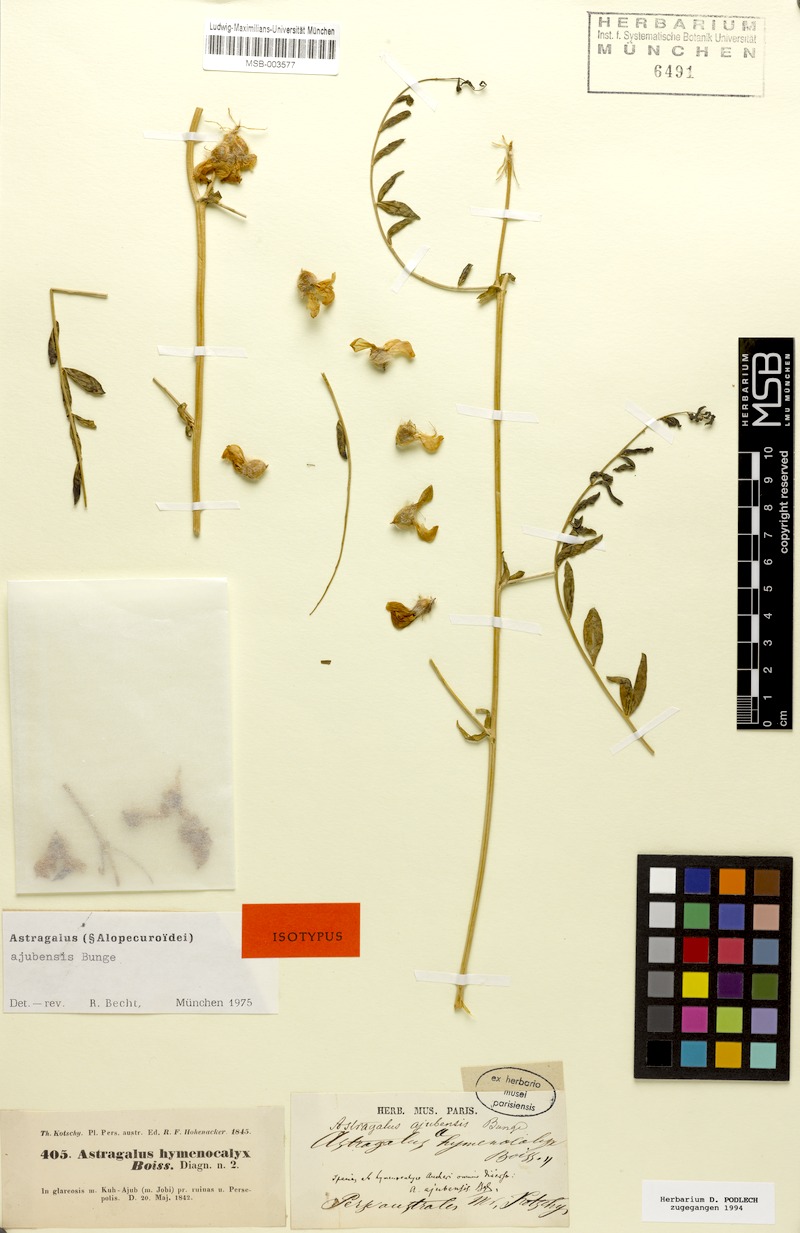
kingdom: Plantae
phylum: Tracheophyta
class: Magnoliopsida
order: Fabales
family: Fabaceae
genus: Astragalus
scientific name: Astragalus macrocephalus
